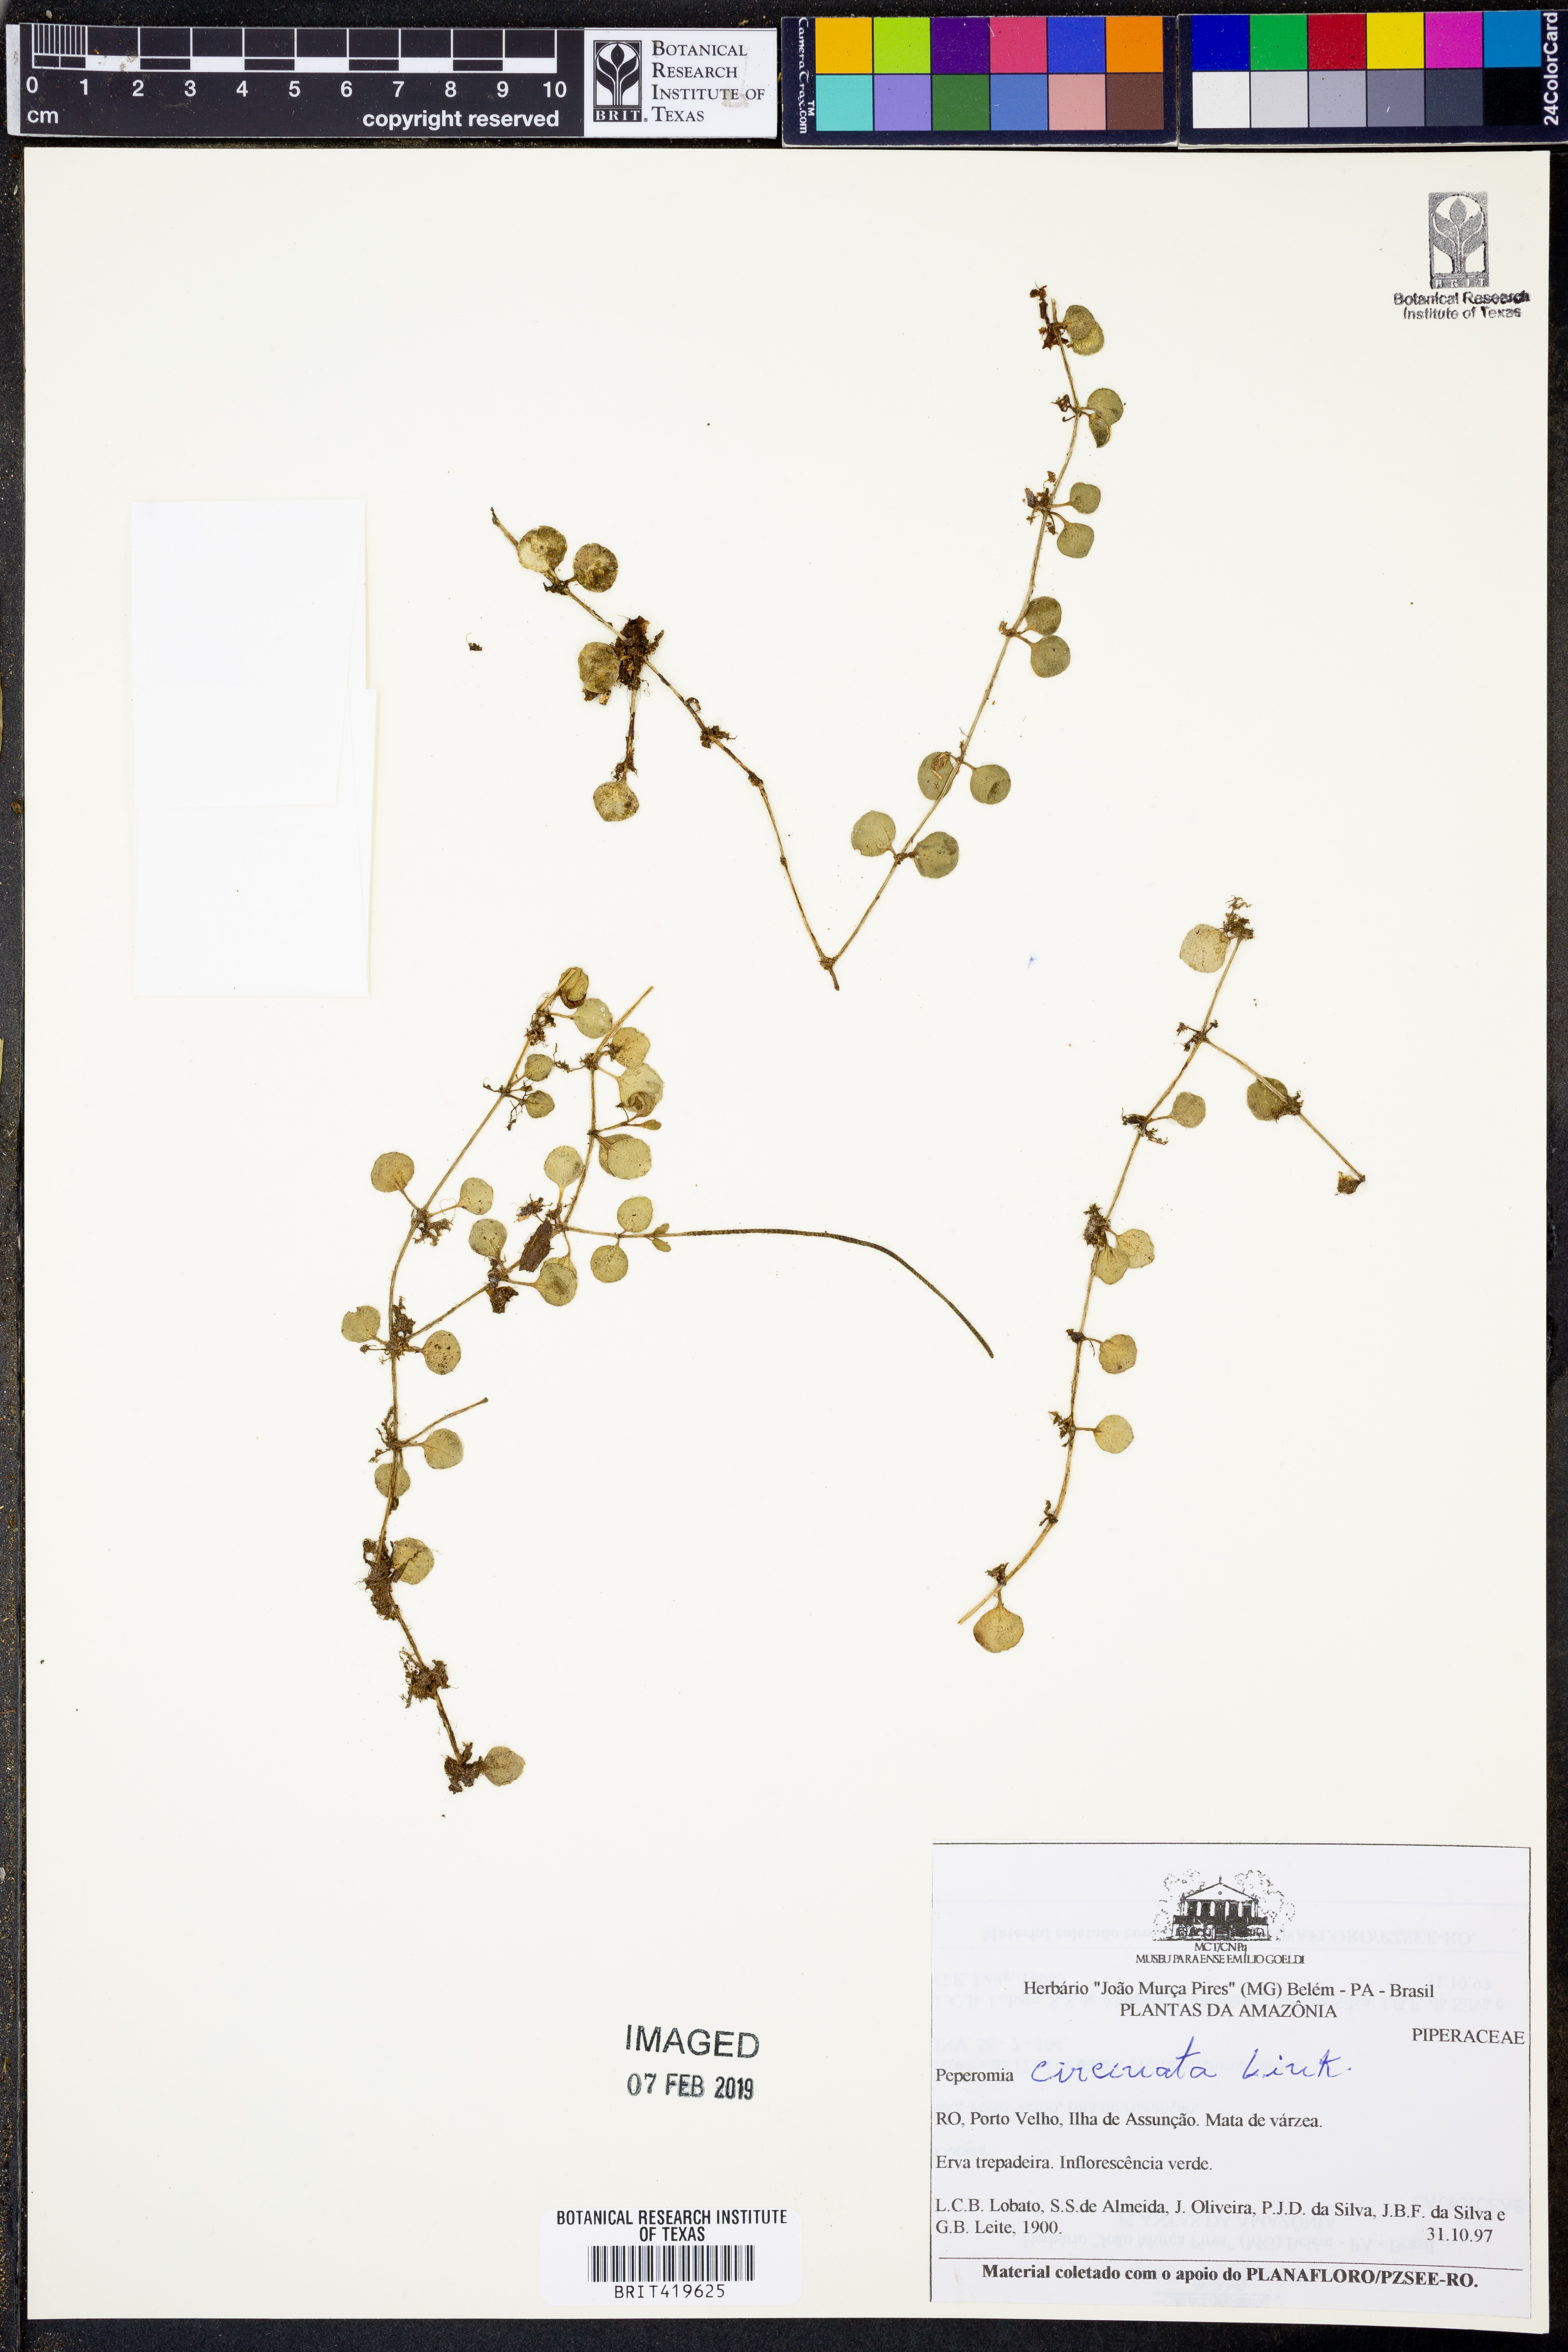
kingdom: Plantae
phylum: Tracheophyta
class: Magnoliopsida
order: Piperales
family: Piperaceae
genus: Peperomia
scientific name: Peperomia circinnata
